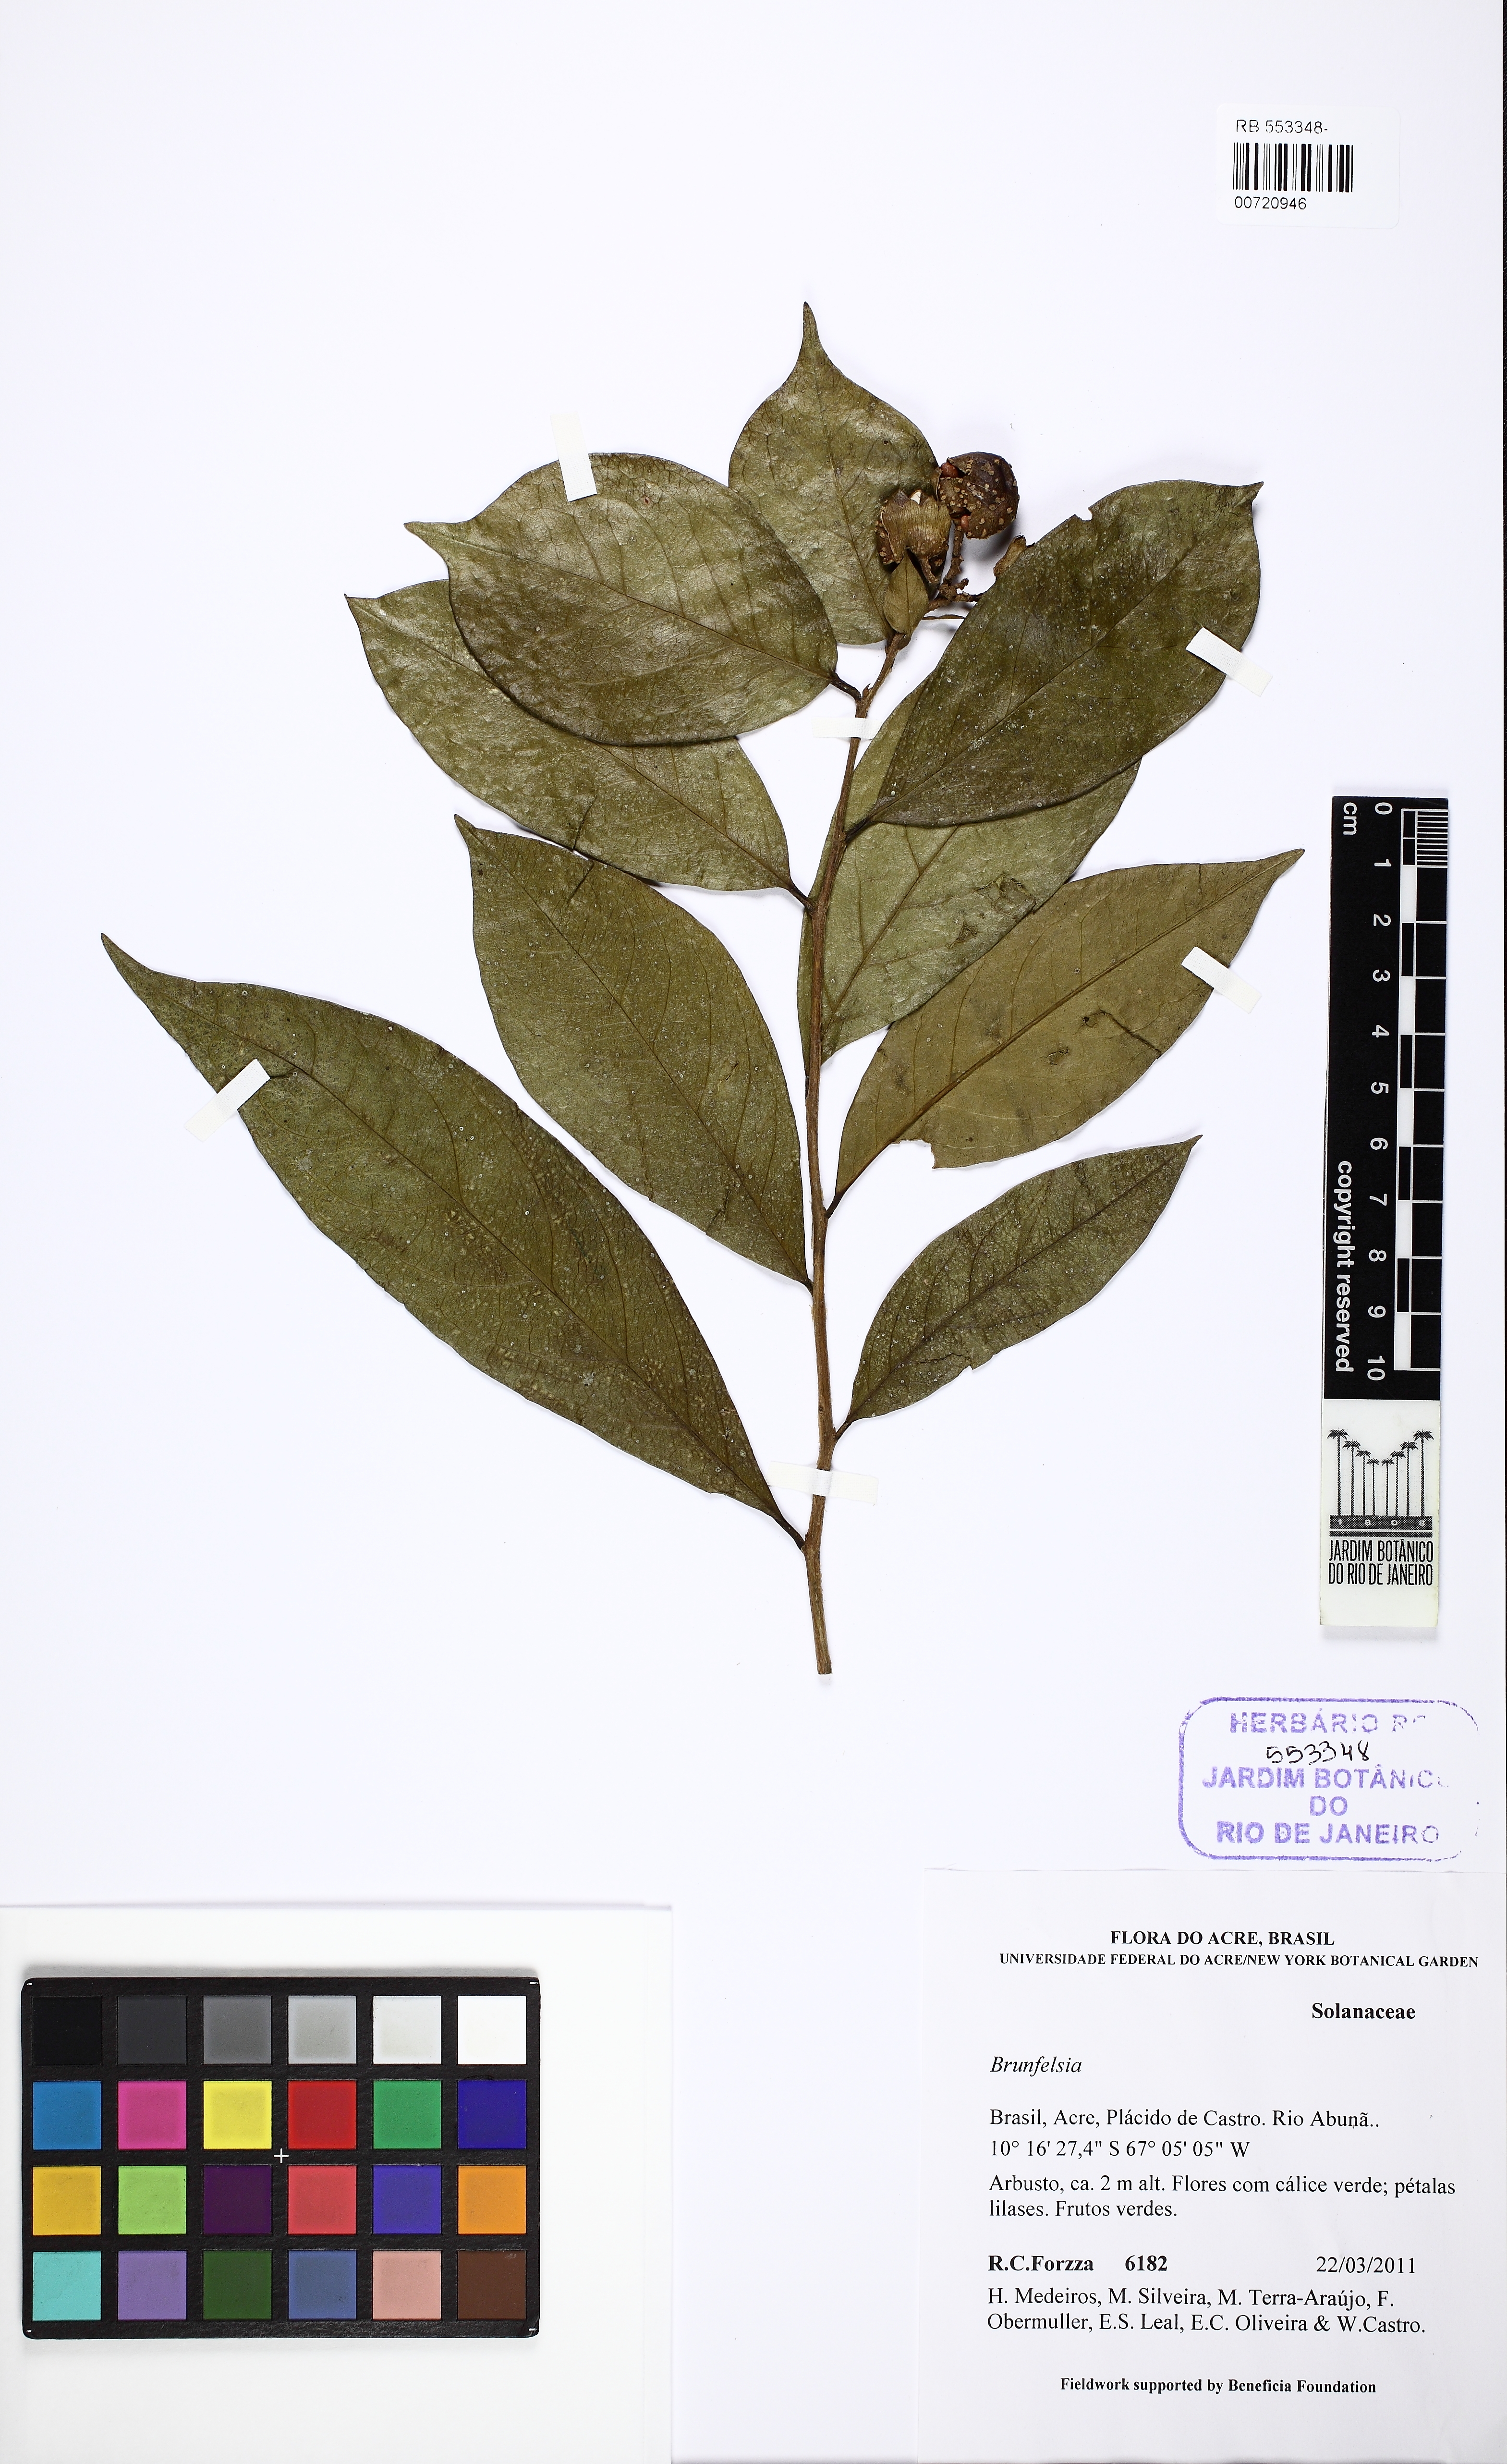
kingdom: Plantae
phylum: Tracheophyta
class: Magnoliopsida
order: Solanales
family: Solanaceae
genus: Brunfelsia
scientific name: Brunfelsia
